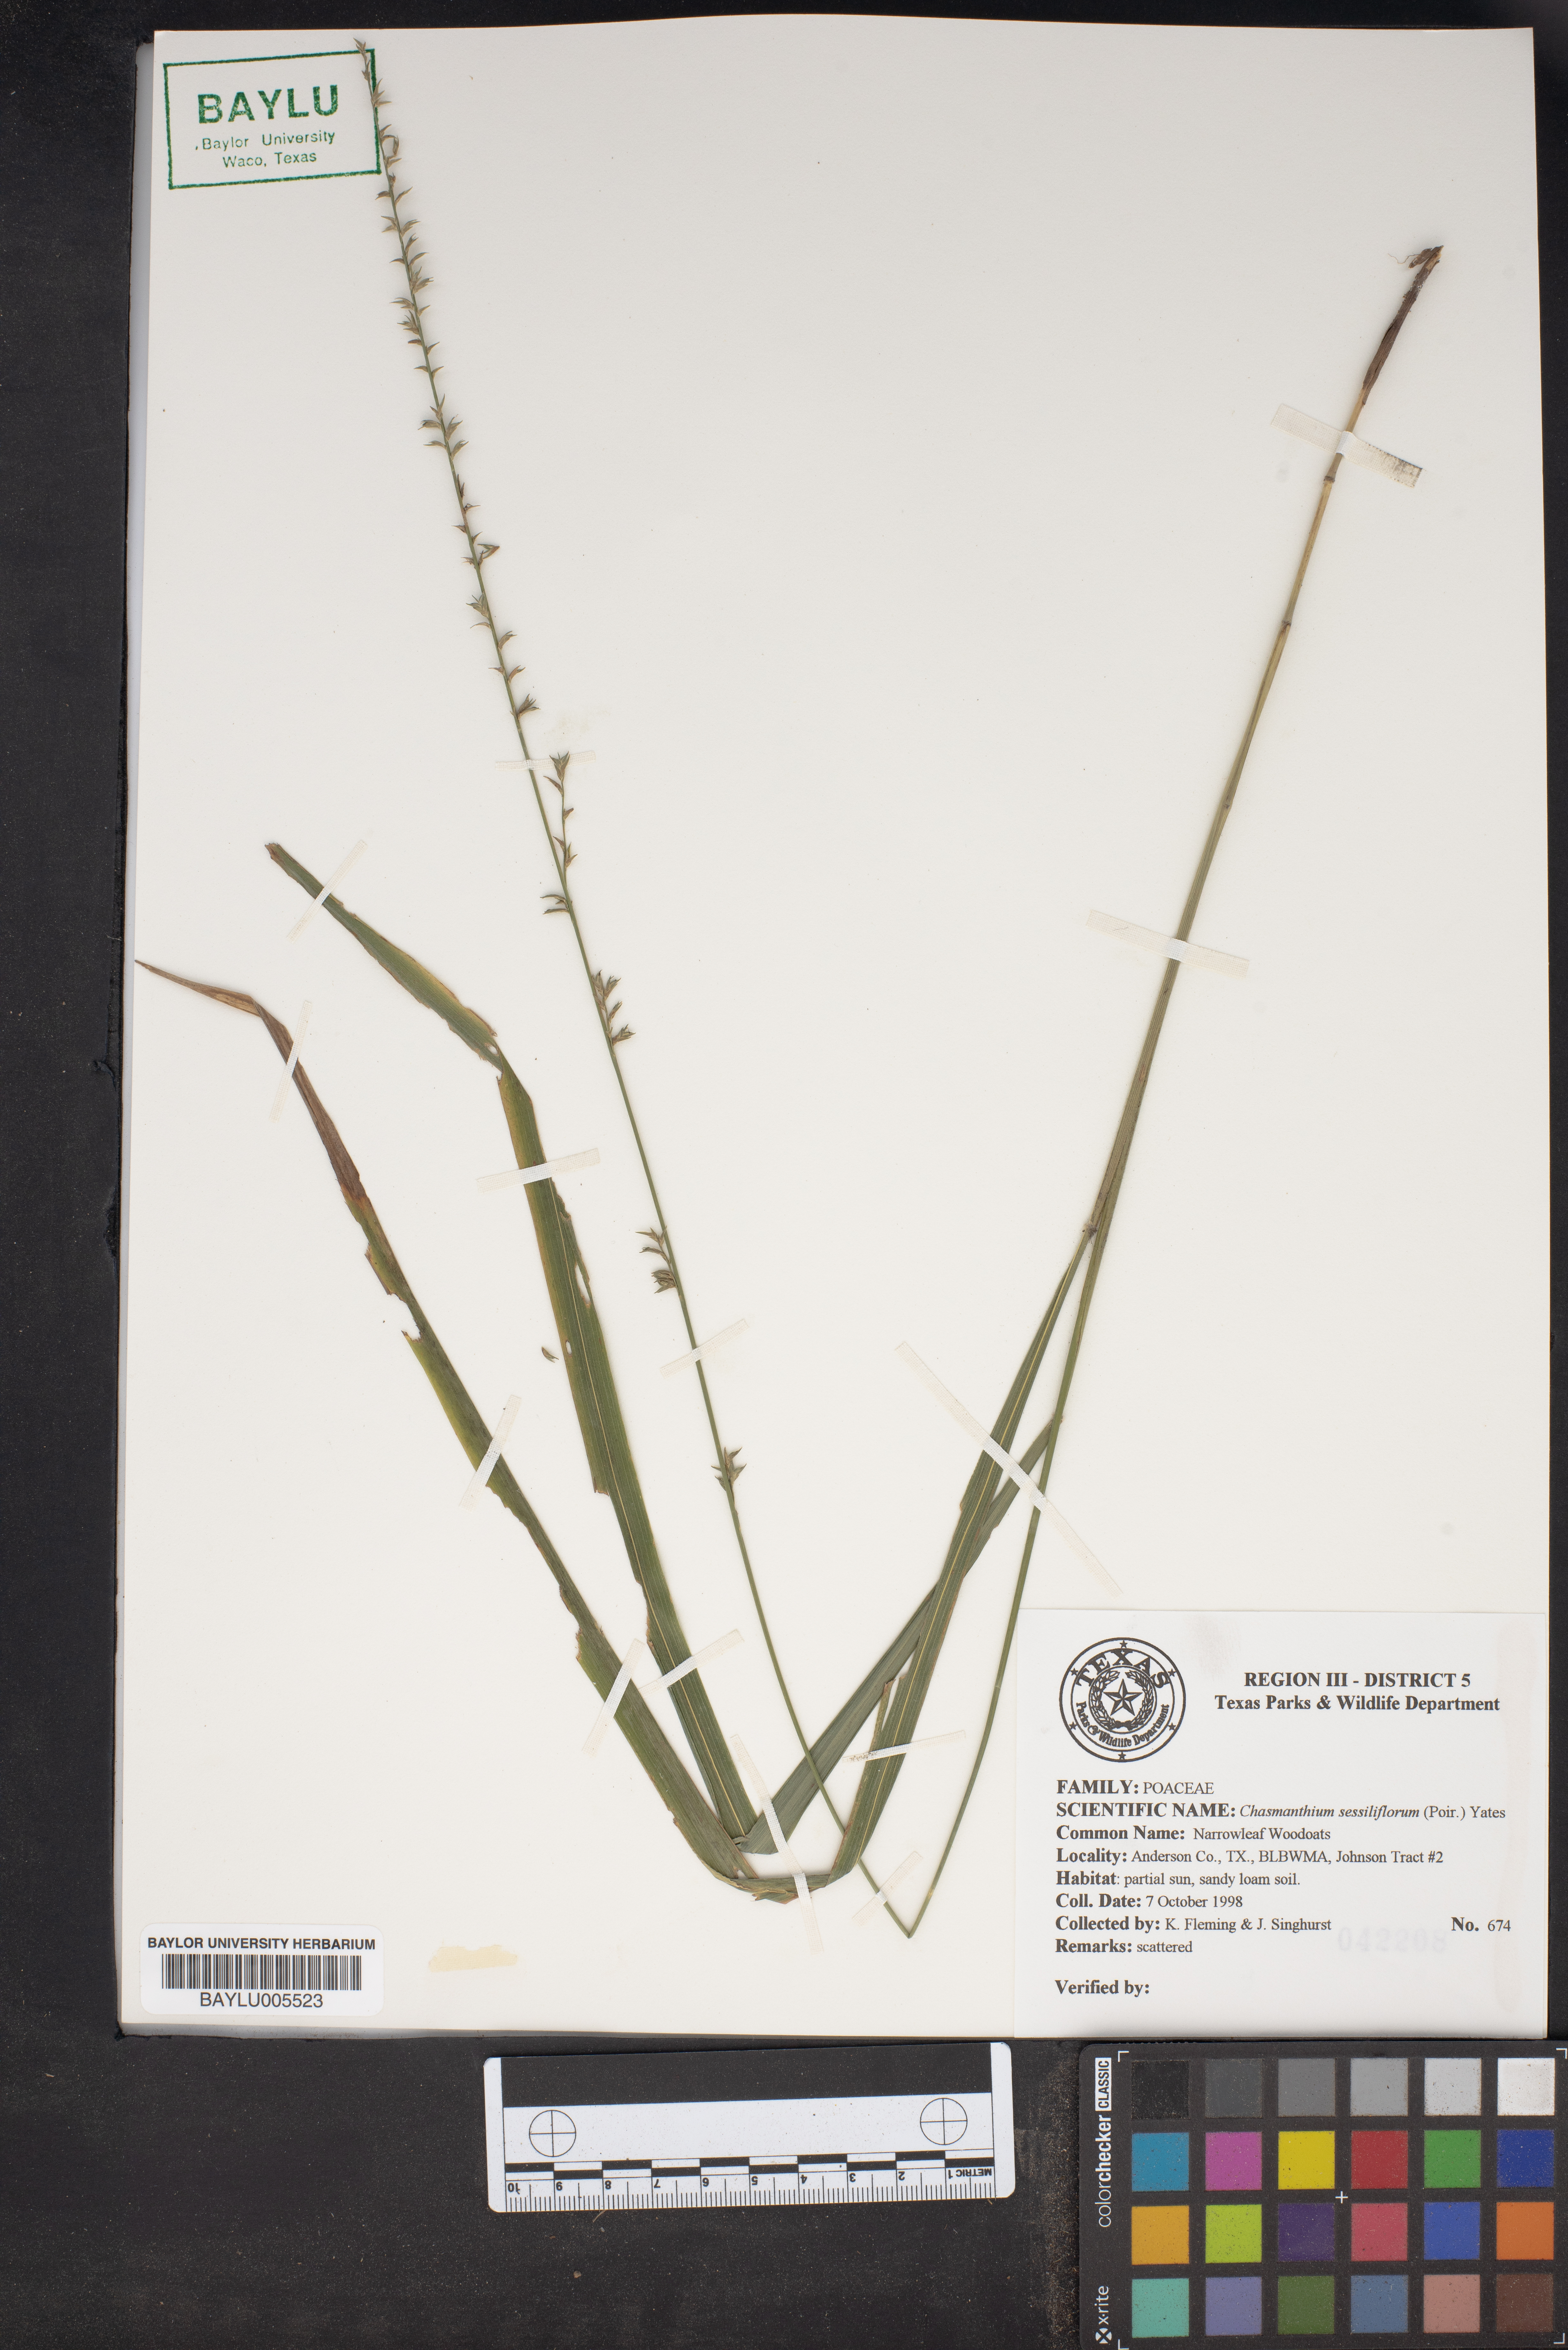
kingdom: Plantae
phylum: Tracheophyta
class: Liliopsida
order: Poales
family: Poaceae
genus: Chasmanthium
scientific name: Chasmanthium laxum
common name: Slender chasmanthium
